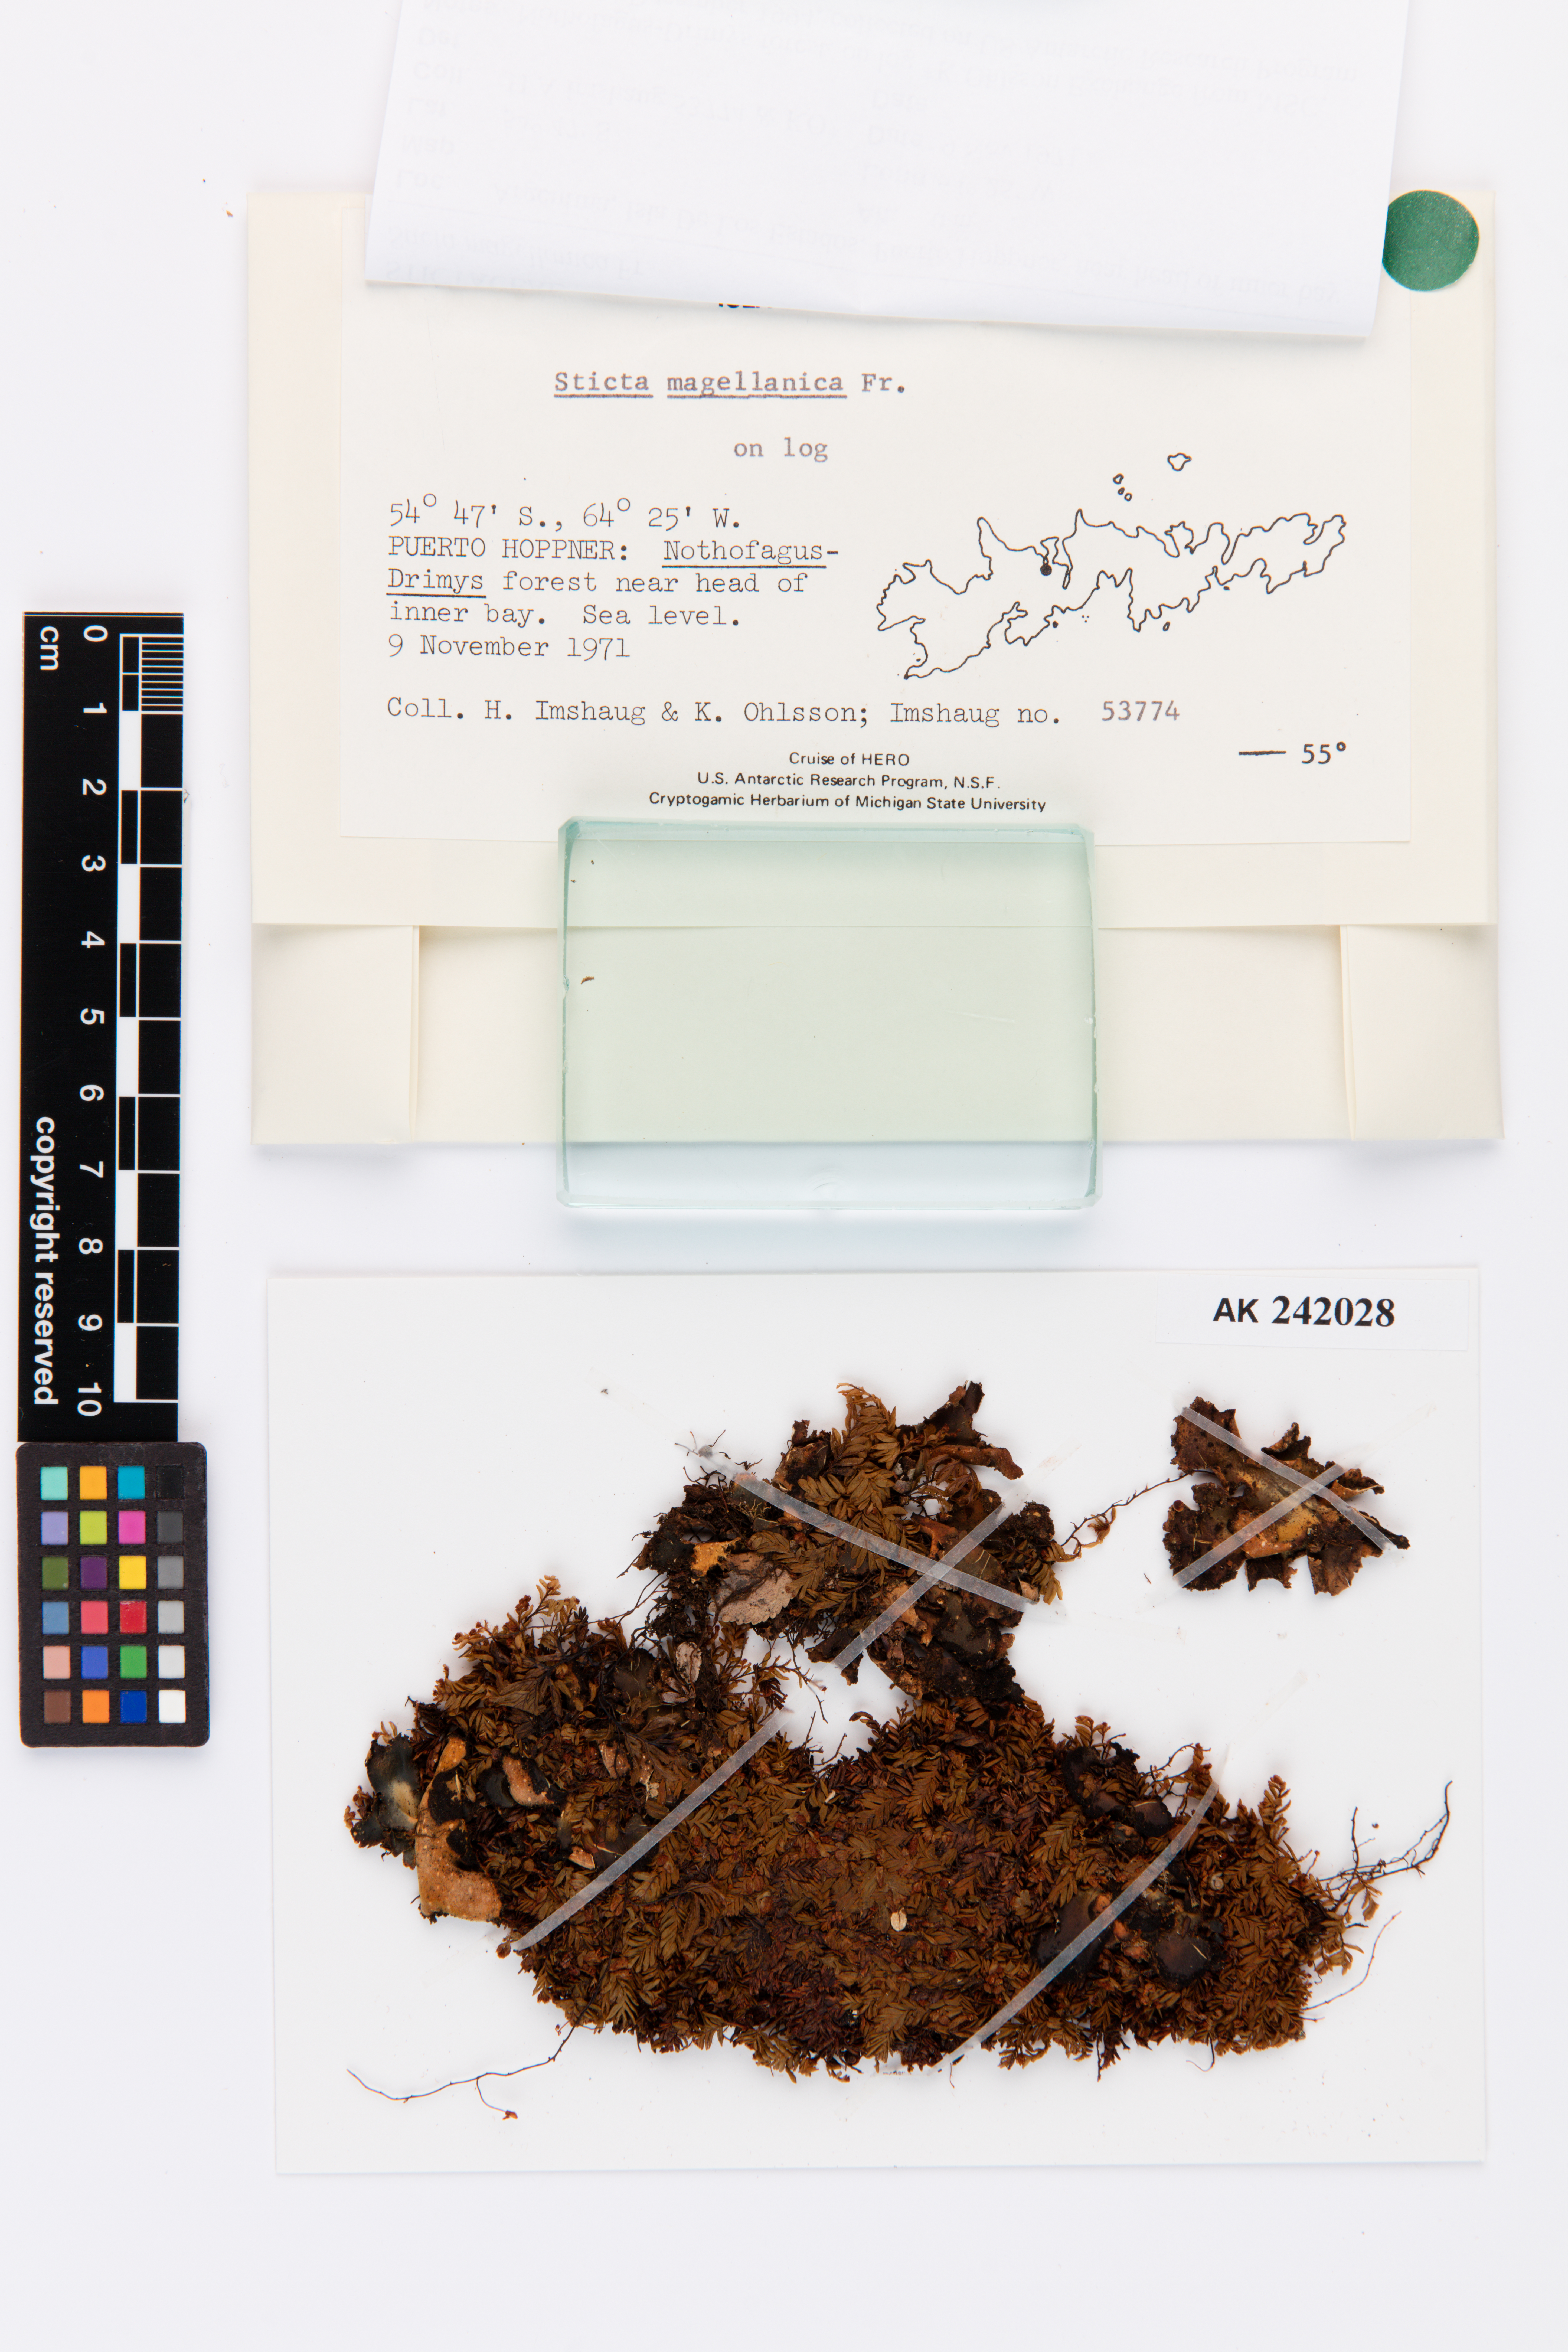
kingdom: Fungi
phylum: Ascomycota
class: Lecanoromycetes
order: Peltigerales
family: Lobariaceae
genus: Sticta
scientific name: Sticta
